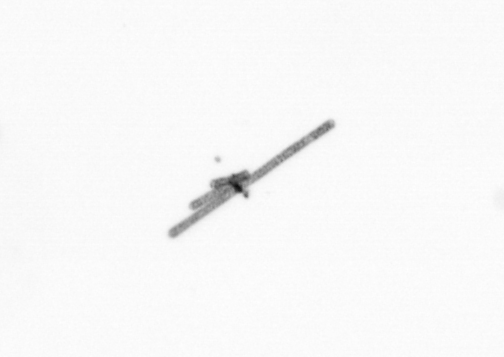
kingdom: Chromista
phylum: Ochrophyta
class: Bacillariophyceae
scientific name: Bacillariophyceae
